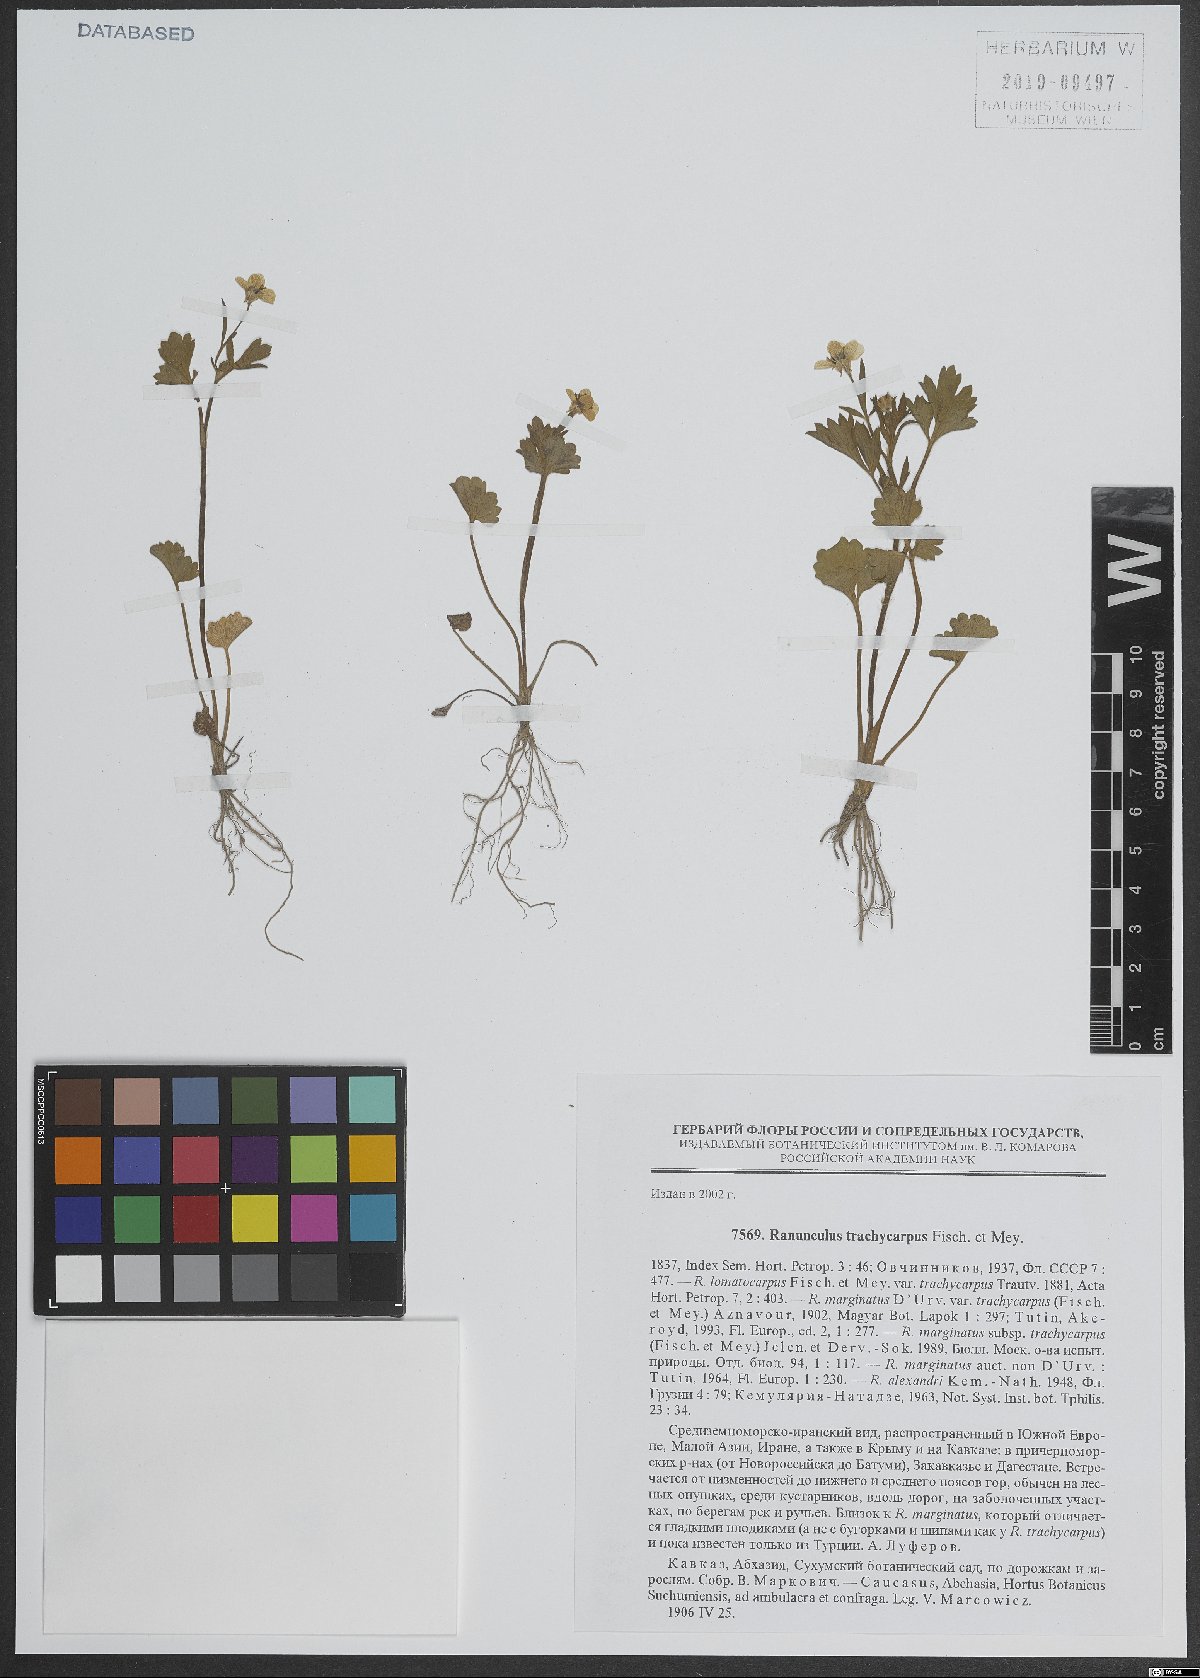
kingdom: Plantae
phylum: Tracheophyta
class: Magnoliopsida
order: Ranunculales
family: Ranunculaceae
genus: Ranunculus
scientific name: Ranunculus marginatus
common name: St. martin's buttercup
